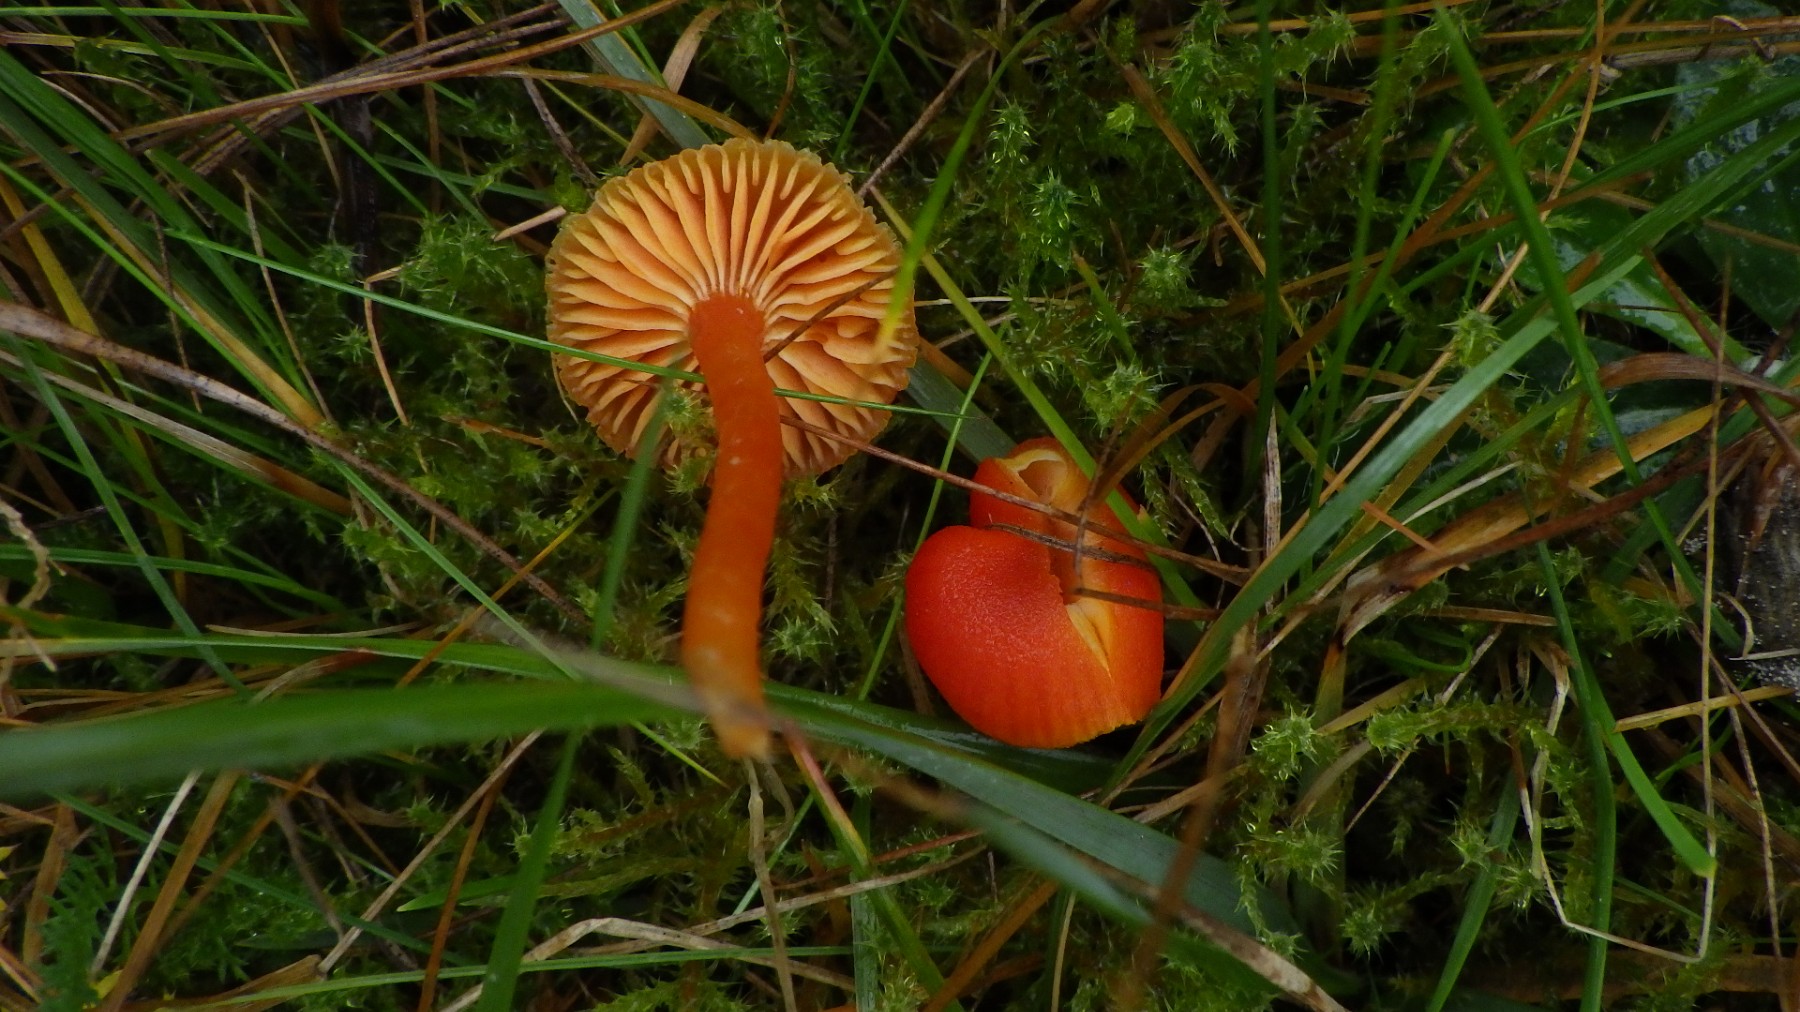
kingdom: Fungi
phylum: Basidiomycota
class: Agaricomycetes
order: Agaricales
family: Hygrophoraceae
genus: Hygrocybe
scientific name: Hygrocybe miniata
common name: mønje-vokshat
